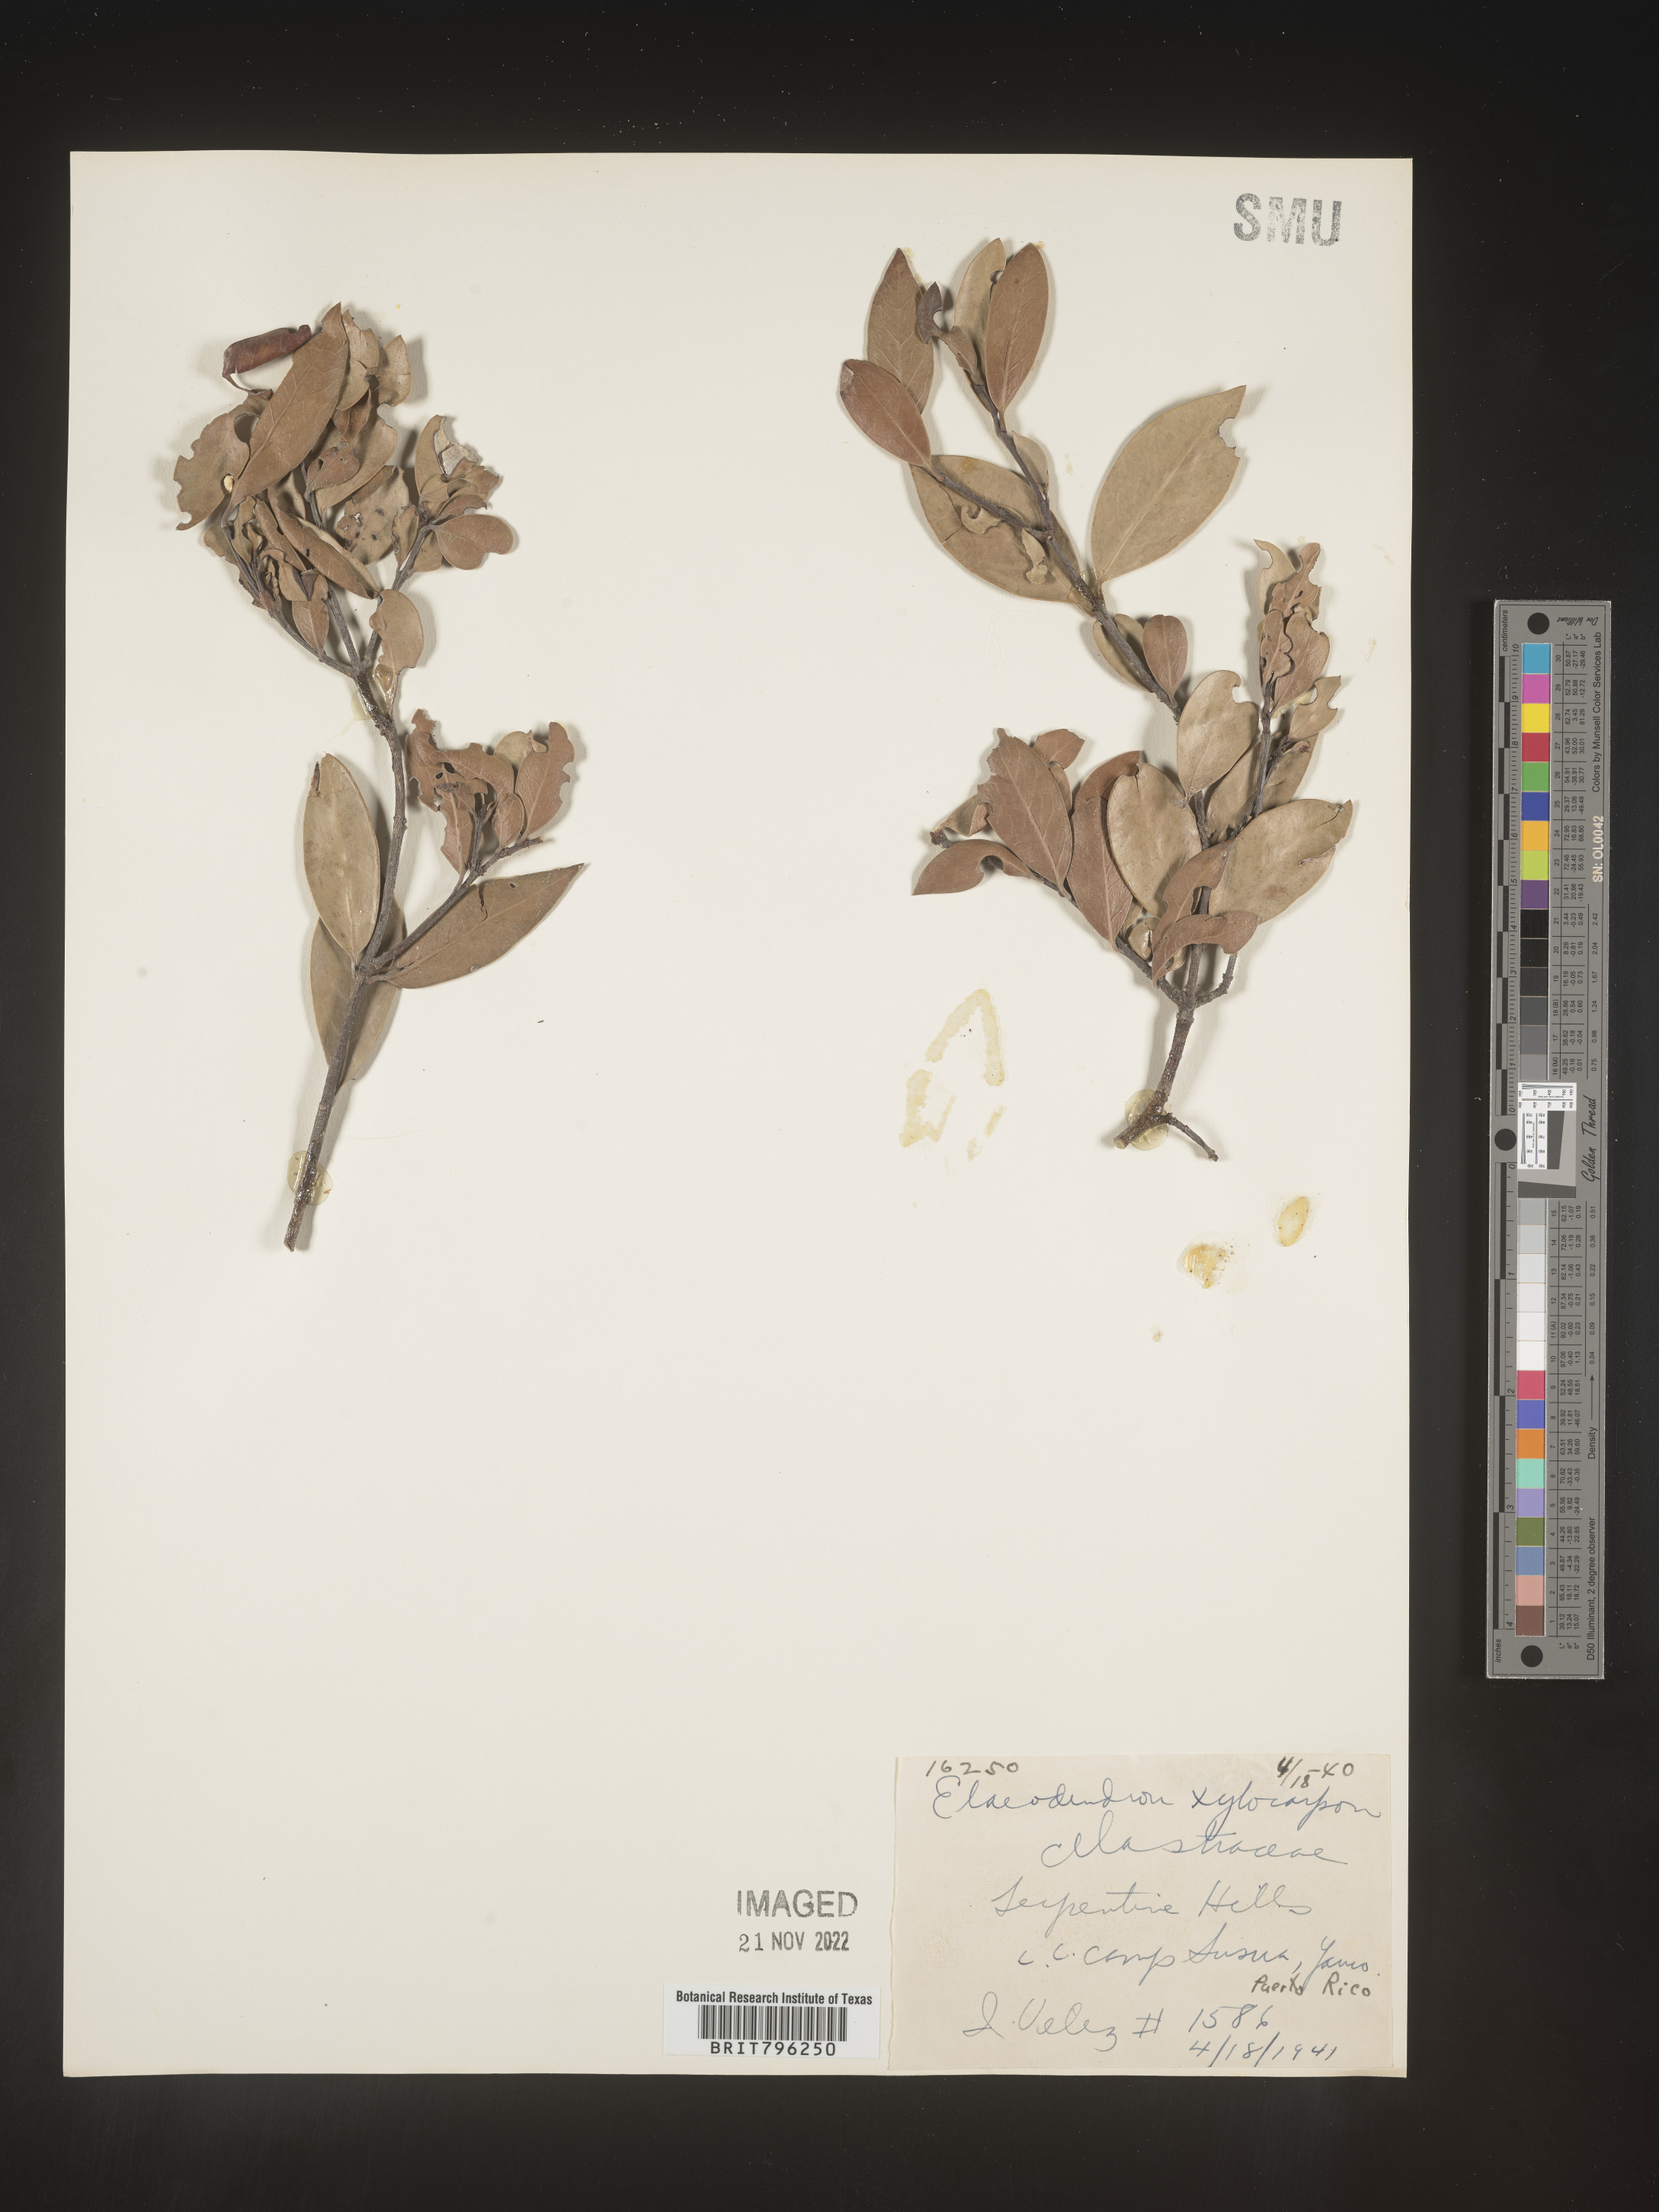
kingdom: Plantae
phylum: Tracheophyta
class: Magnoliopsida
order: Celastrales
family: Celastraceae
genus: Elaeodendron
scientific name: Elaeodendron
